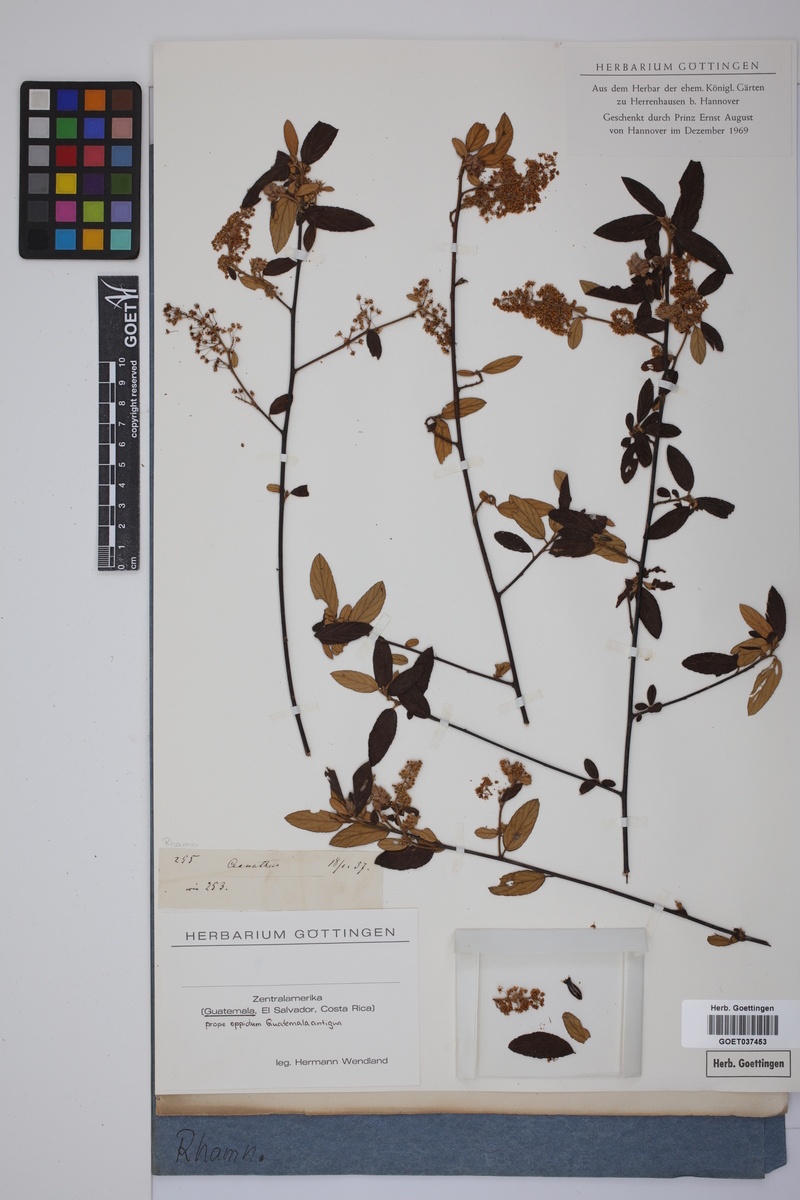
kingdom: Plantae
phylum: Tracheophyta
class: Magnoliopsida
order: Rosales
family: Rhamnaceae
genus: Ceanothus
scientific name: Ceanothus
